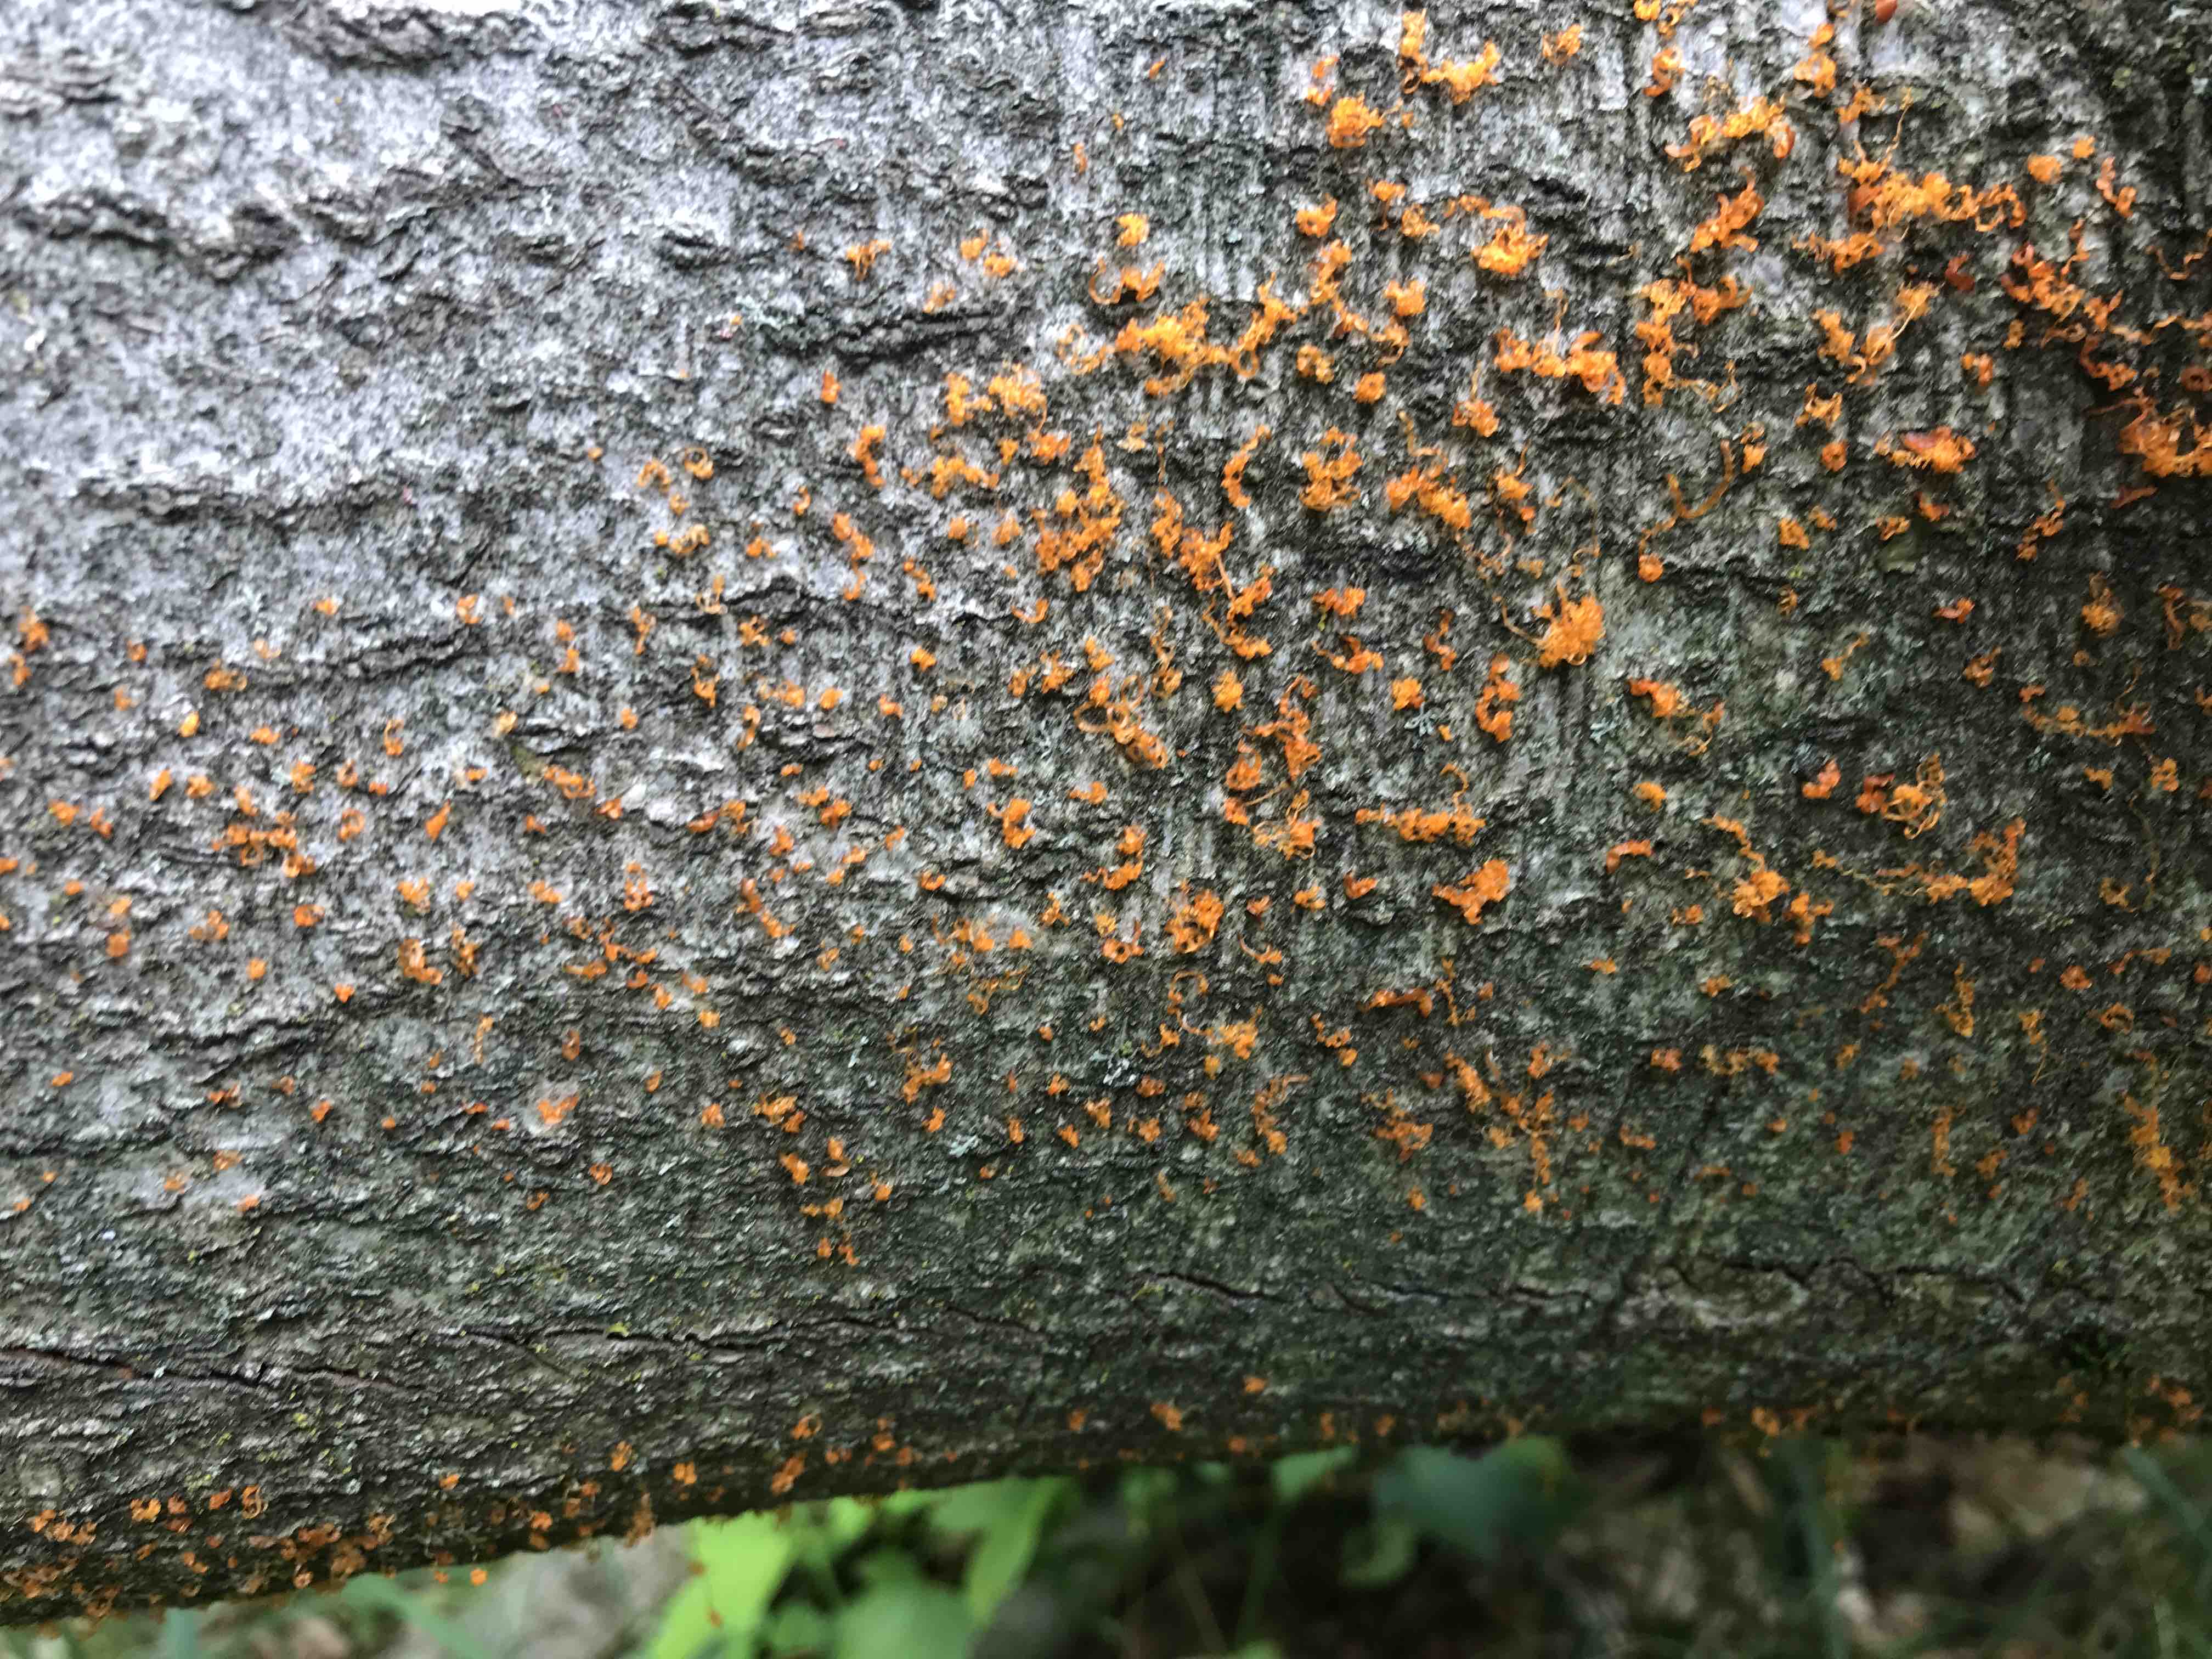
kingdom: Fungi
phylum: Ascomycota
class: Sordariomycetes
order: Xylariales
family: Diatrypaceae
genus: Eutypella
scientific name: Eutypella quaternata
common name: bøge-korsprik
